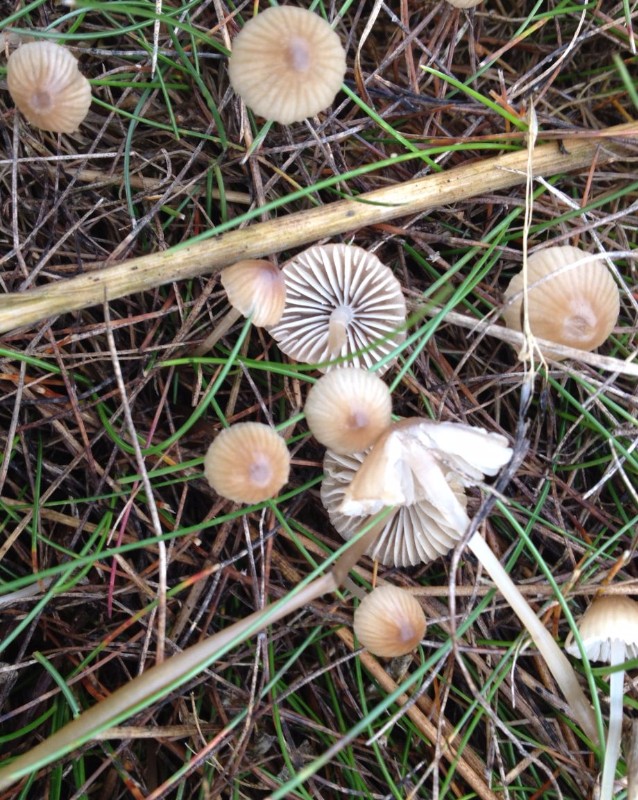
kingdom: Fungi
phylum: Basidiomycota
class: Agaricomycetes
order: Agaricales
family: Mycenaceae
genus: Mycena
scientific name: Mycena
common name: huesvamp
